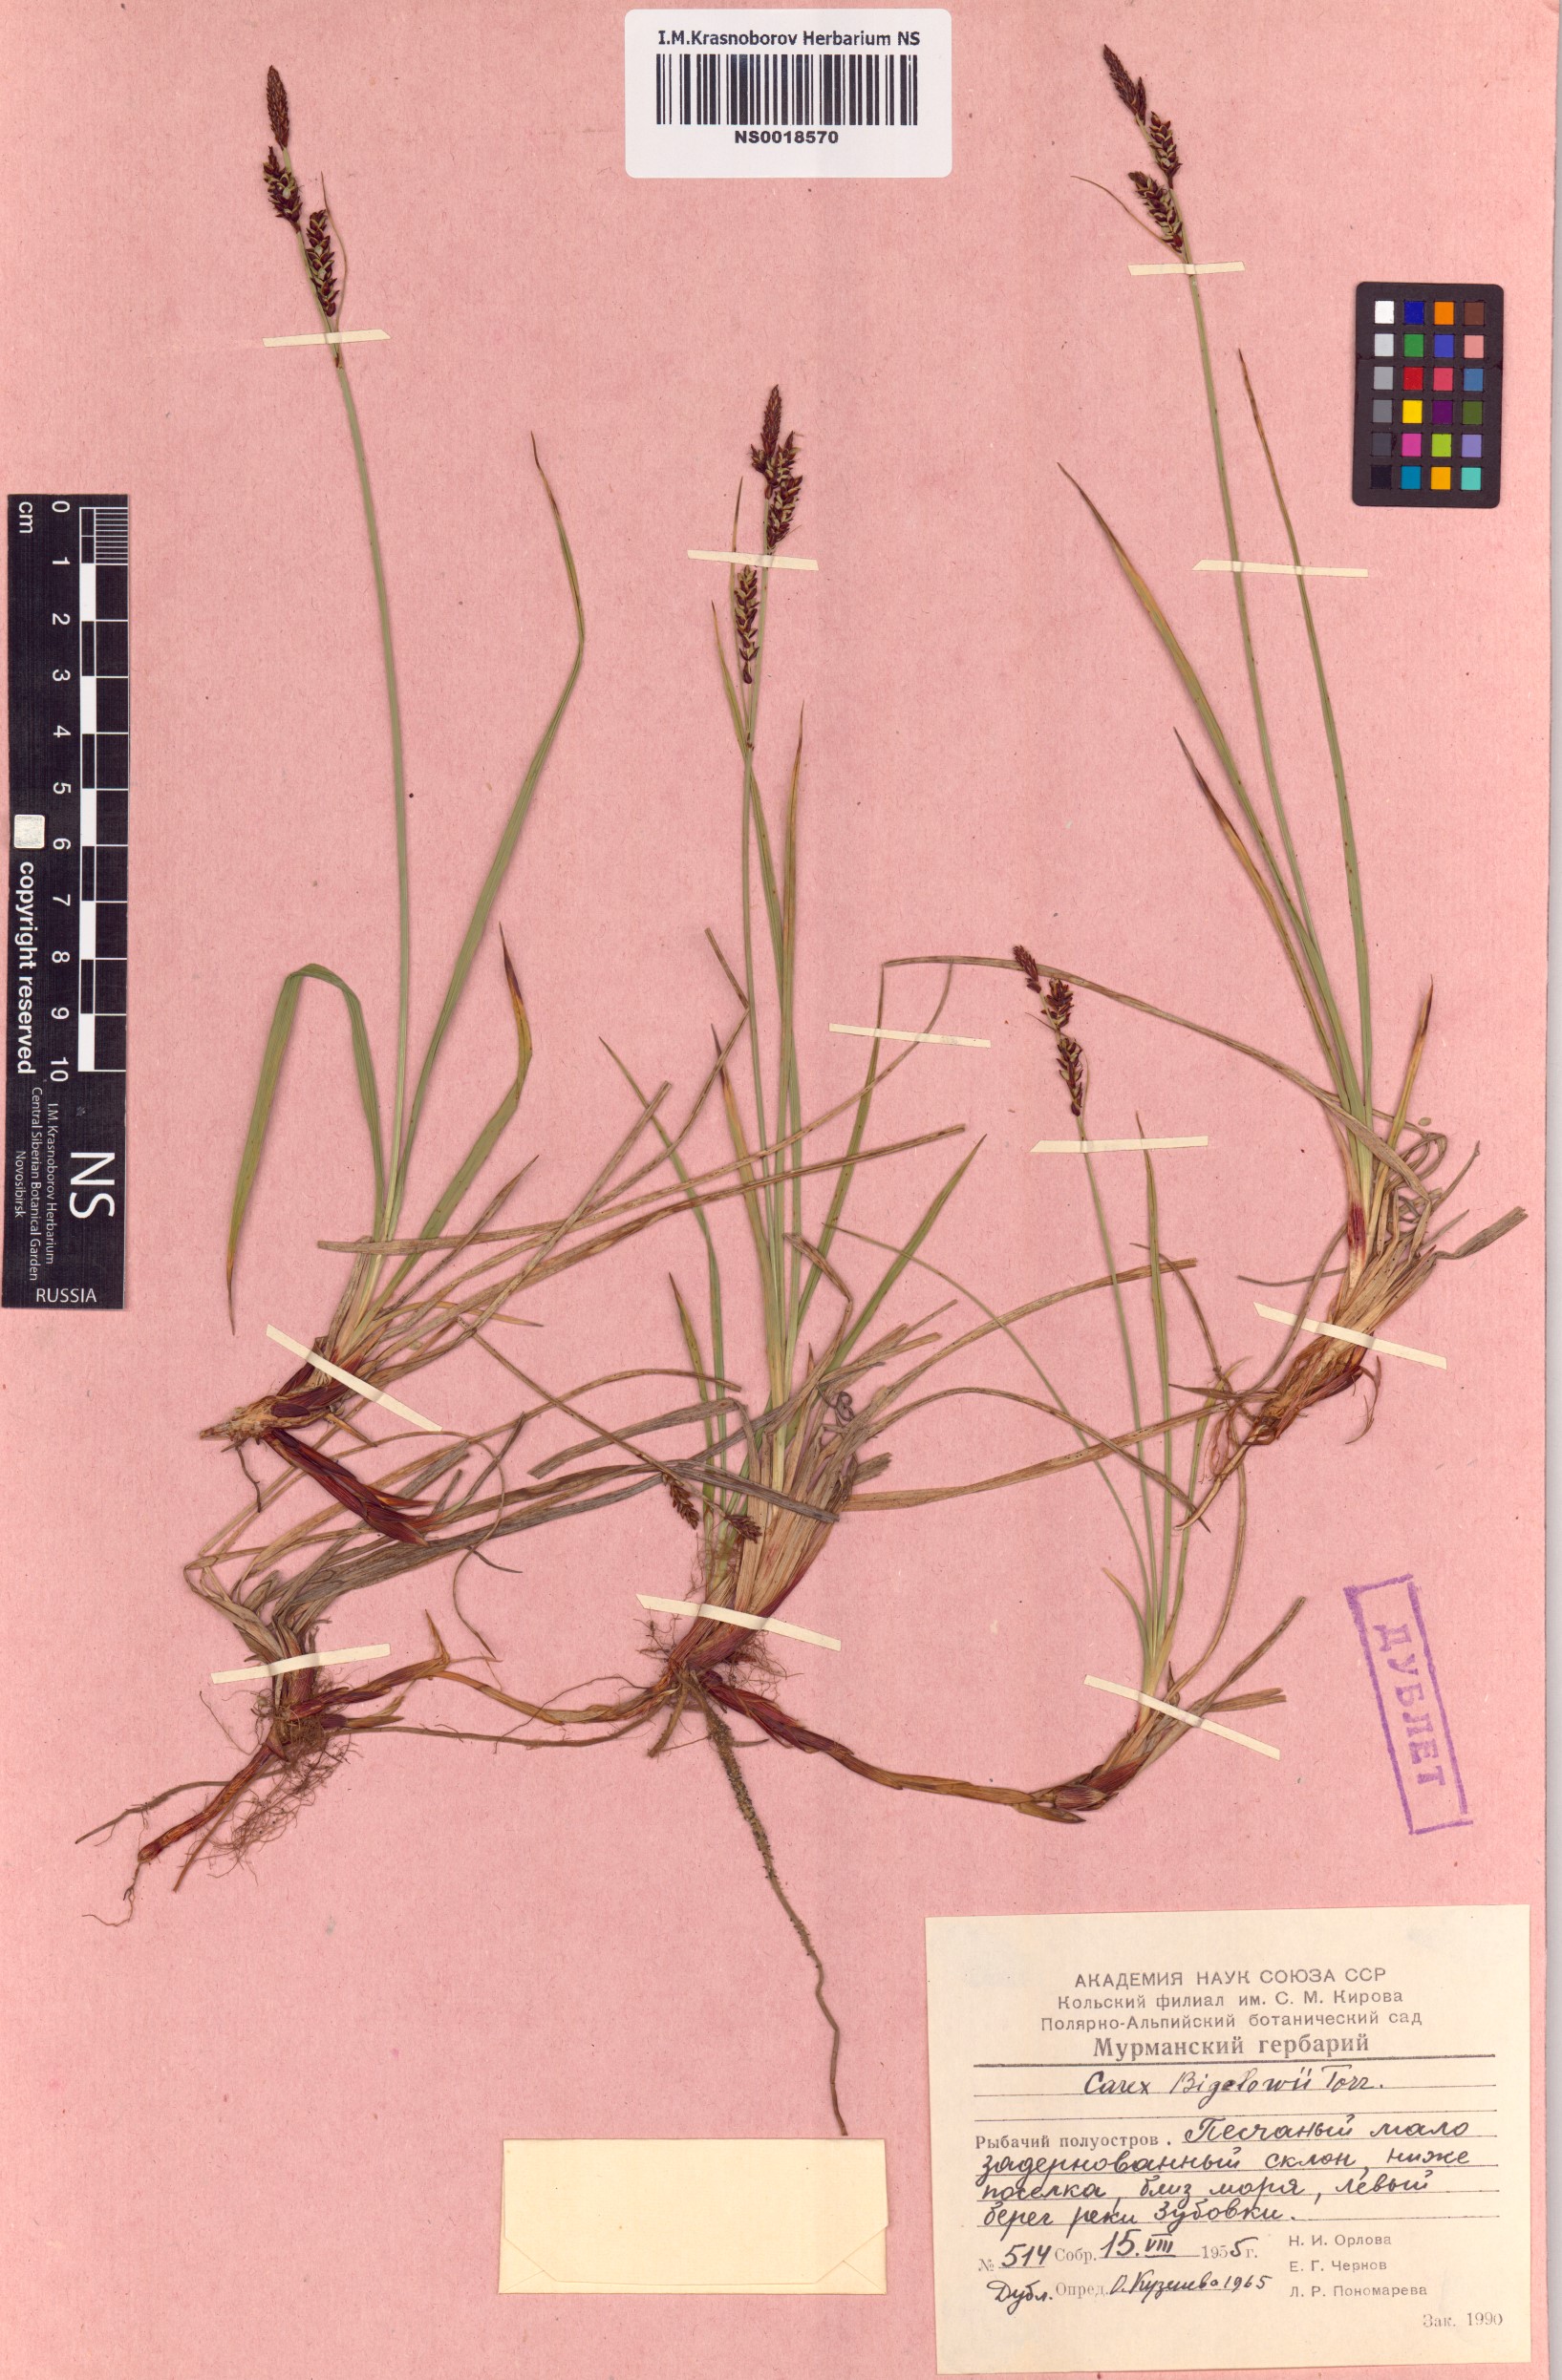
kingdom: Plantae
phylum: Tracheophyta
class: Liliopsida
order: Poales
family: Cyperaceae
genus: Carex
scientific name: Carex bigelowii
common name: Stiff sedge
